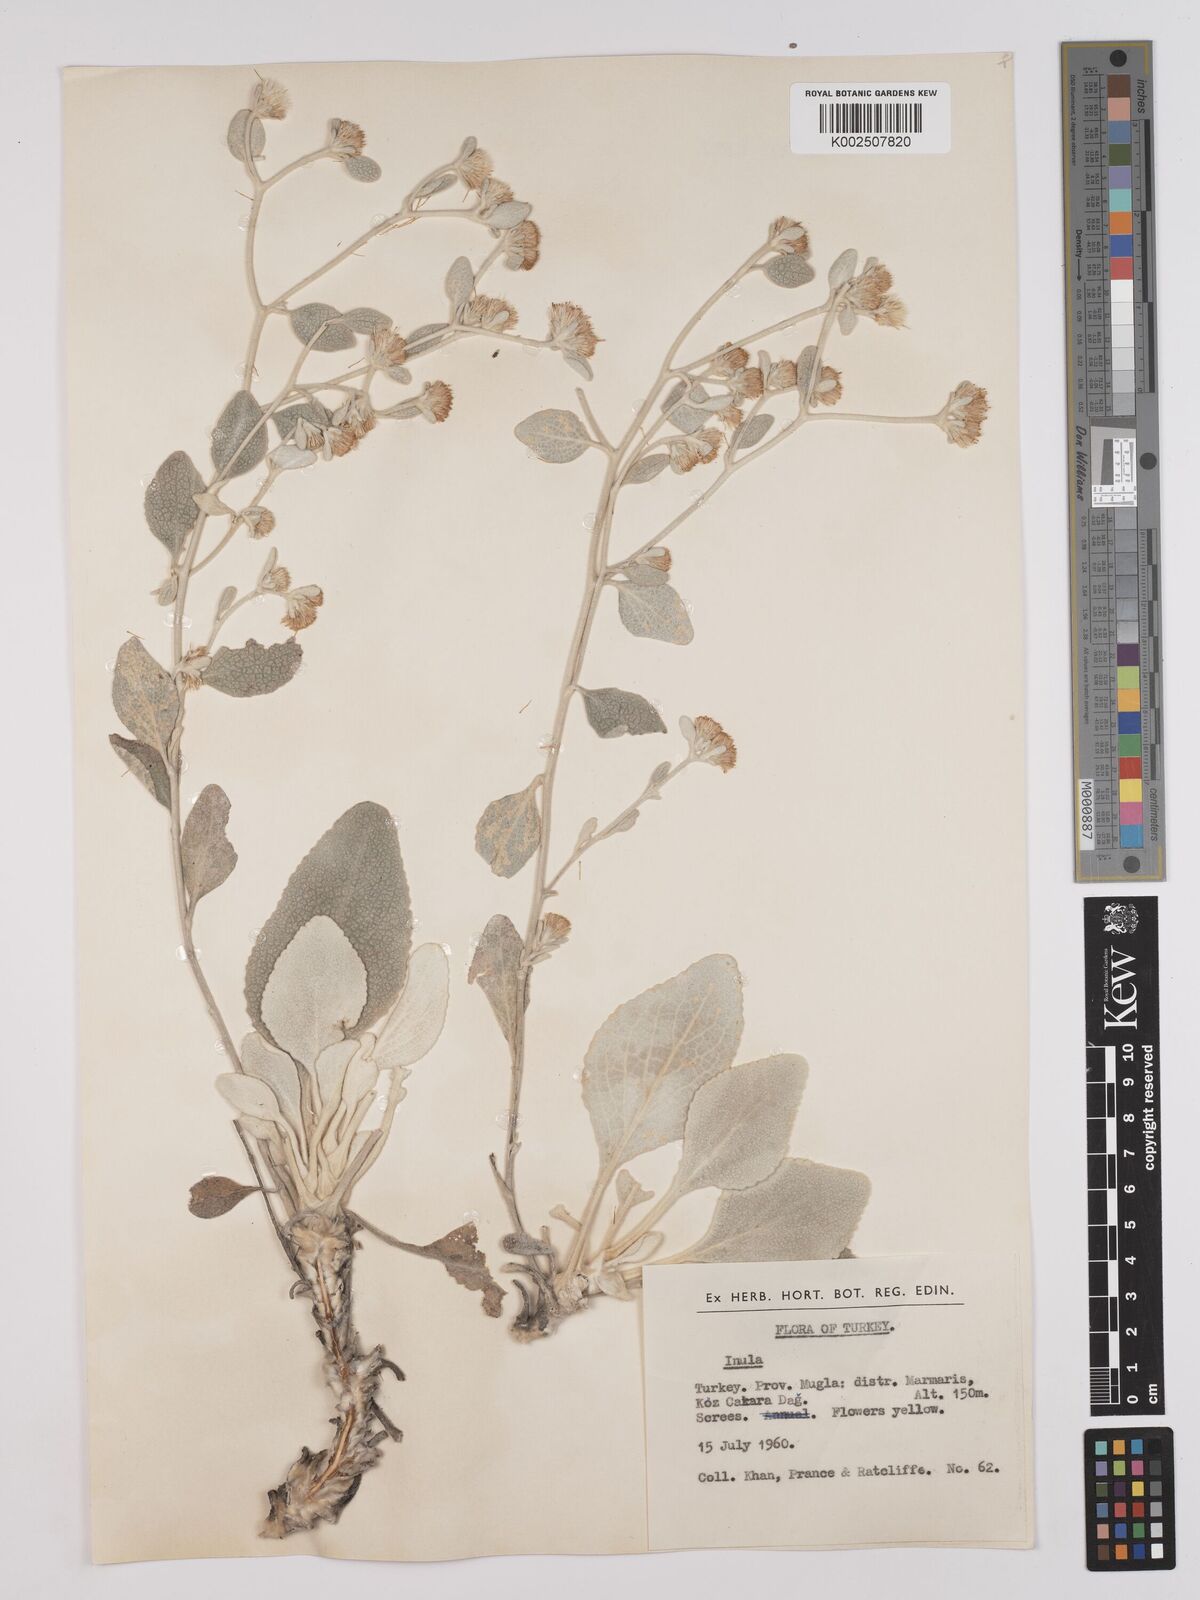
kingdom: Plantae
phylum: Tracheophyta
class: Magnoliopsida
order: Asterales
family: Asteraceae
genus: Pentanema
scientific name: Pentanema verbascifolium
